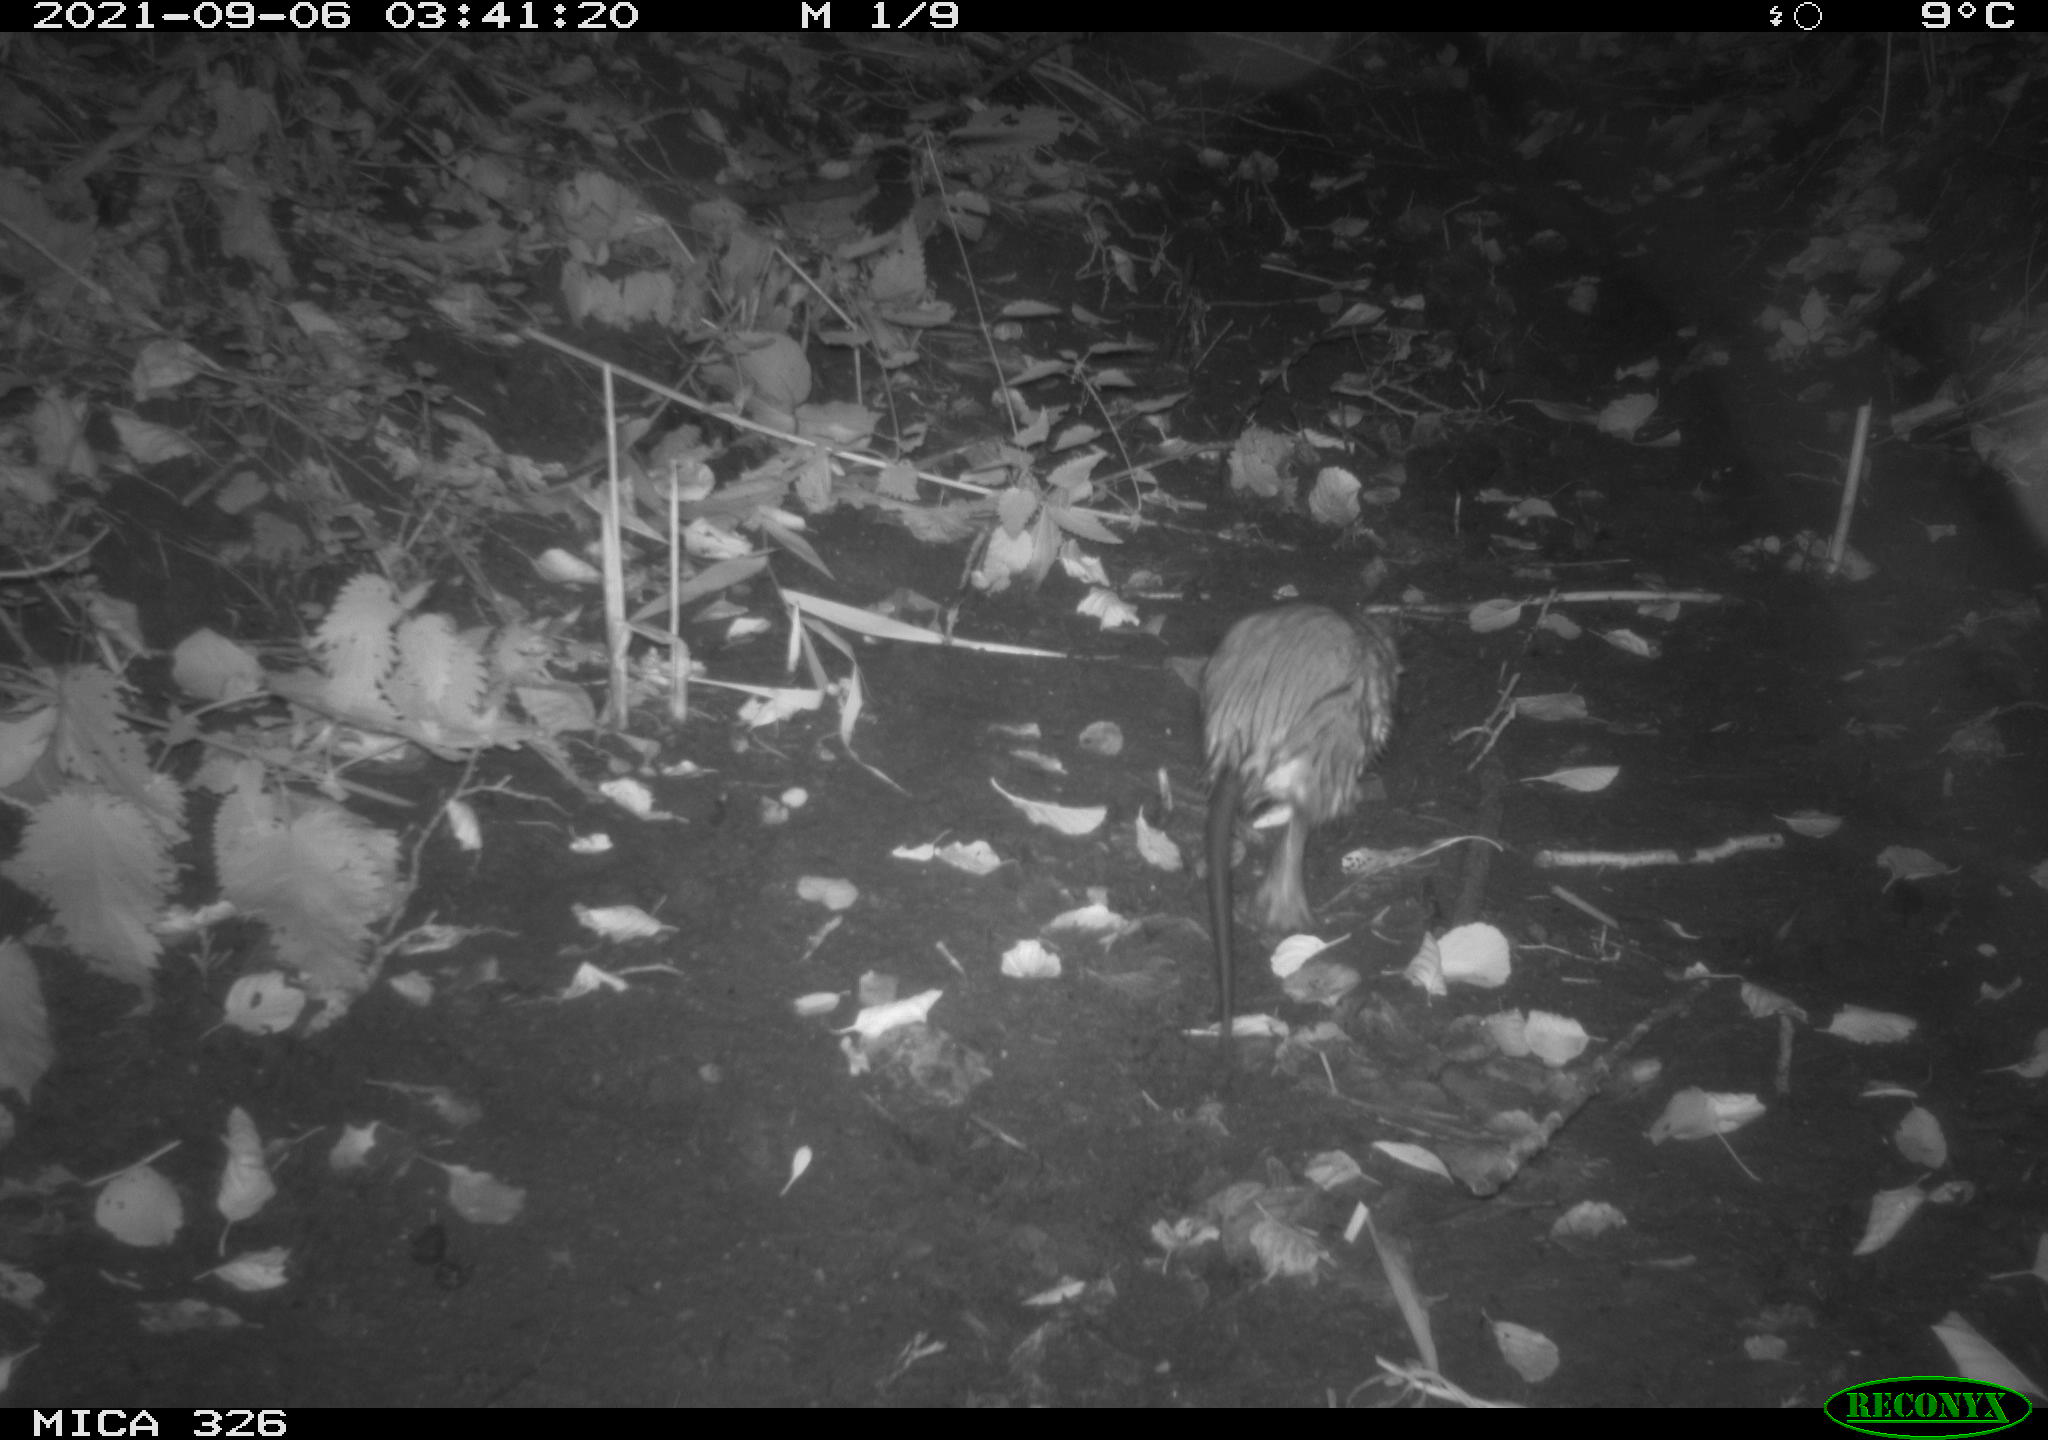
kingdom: Animalia
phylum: Chordata
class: Mammalia
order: Rodentia
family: Cricetidae
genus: Ondatra
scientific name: Ondatra zibethicus
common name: Muskrat
